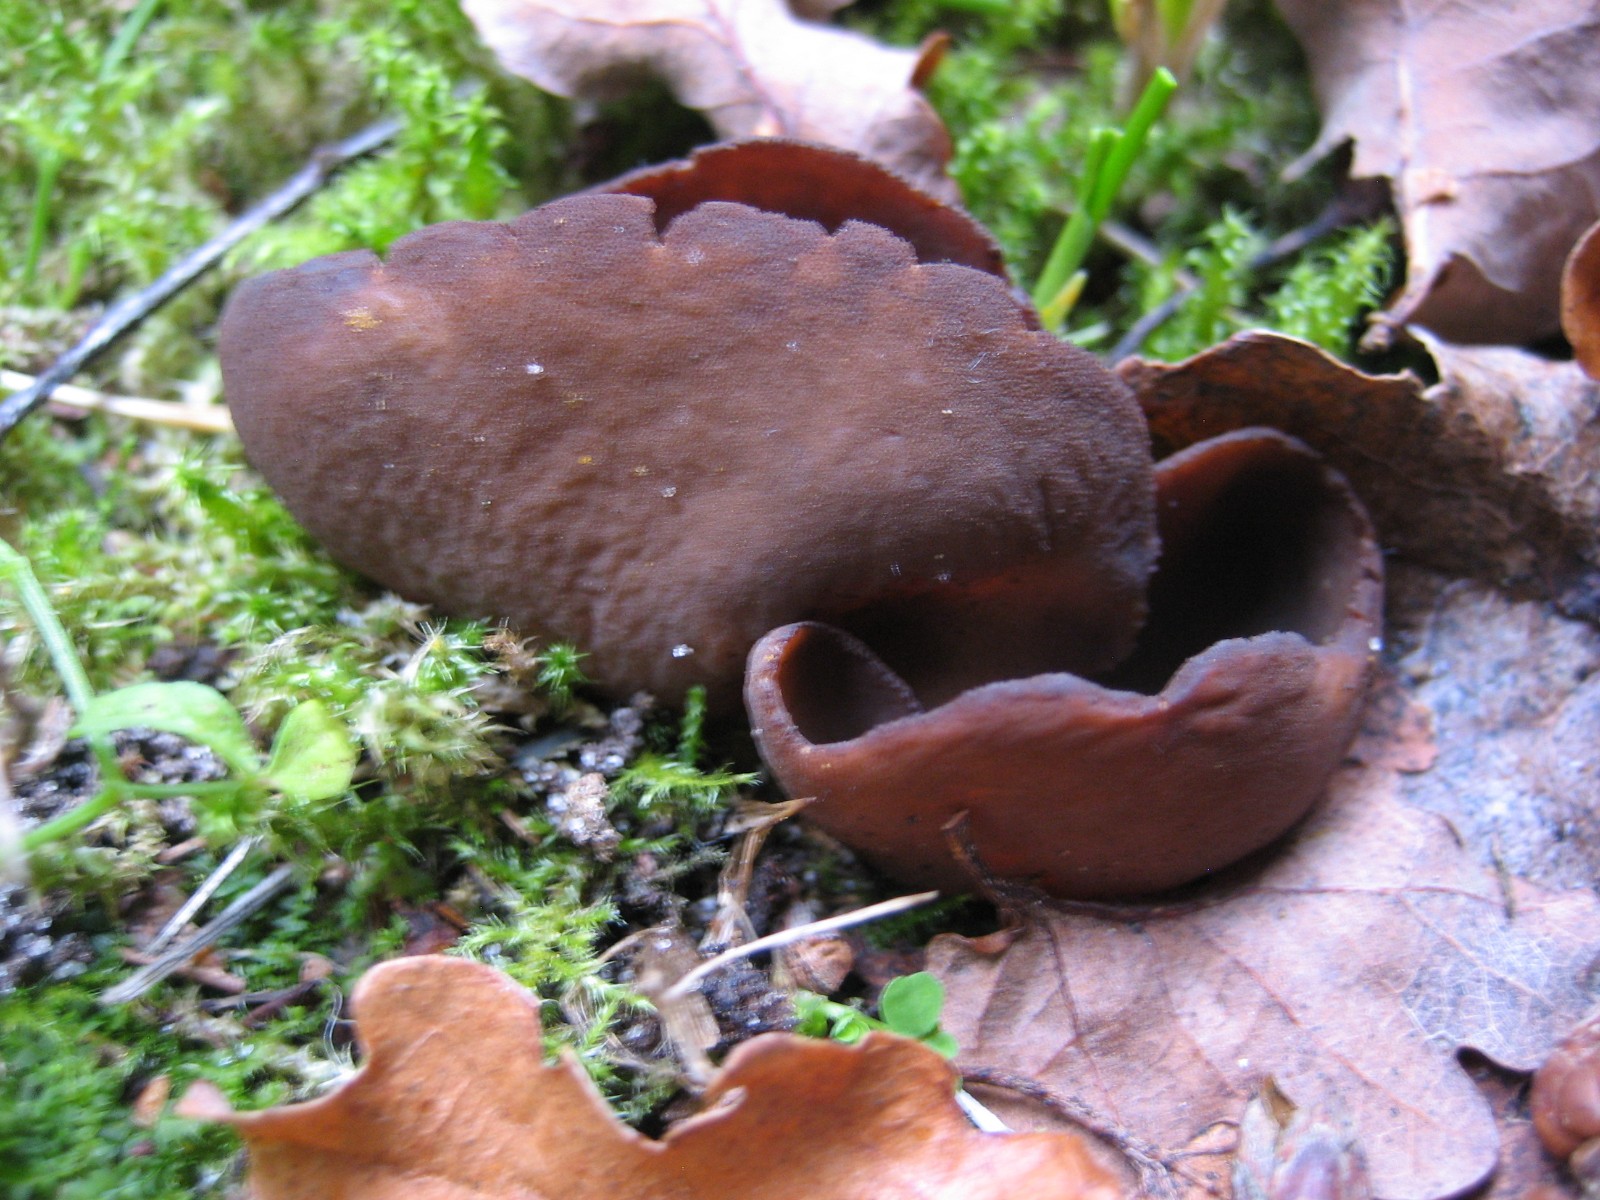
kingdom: Fungi
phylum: Ascomycota
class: Pezizomycetes
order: Pezizales
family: Pezizaceae
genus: Legaliana
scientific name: Legaliana badia
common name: leverbrun bægersvamp
